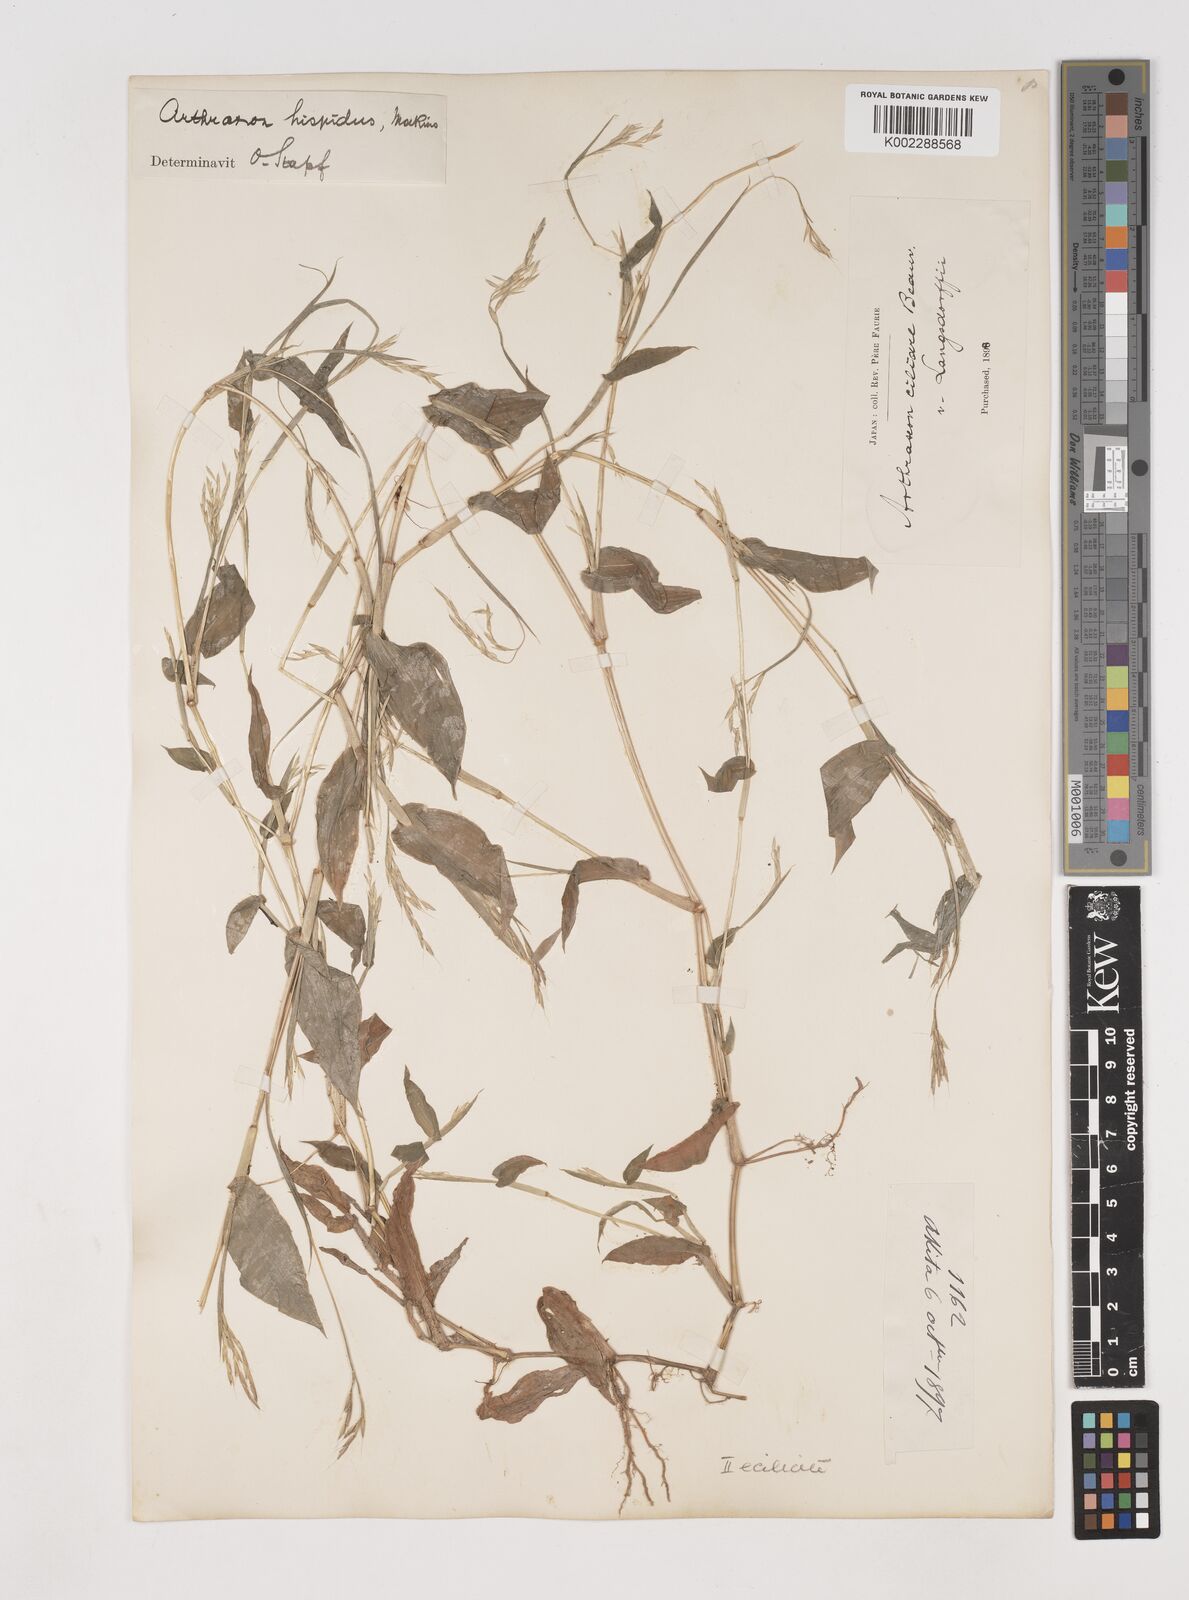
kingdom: Plantae
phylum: Tracheophyta
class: Liliopsida
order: Poales
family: Poaceae
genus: Arthraxon
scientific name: Arthraxon hispidus
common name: Small carpgrass
